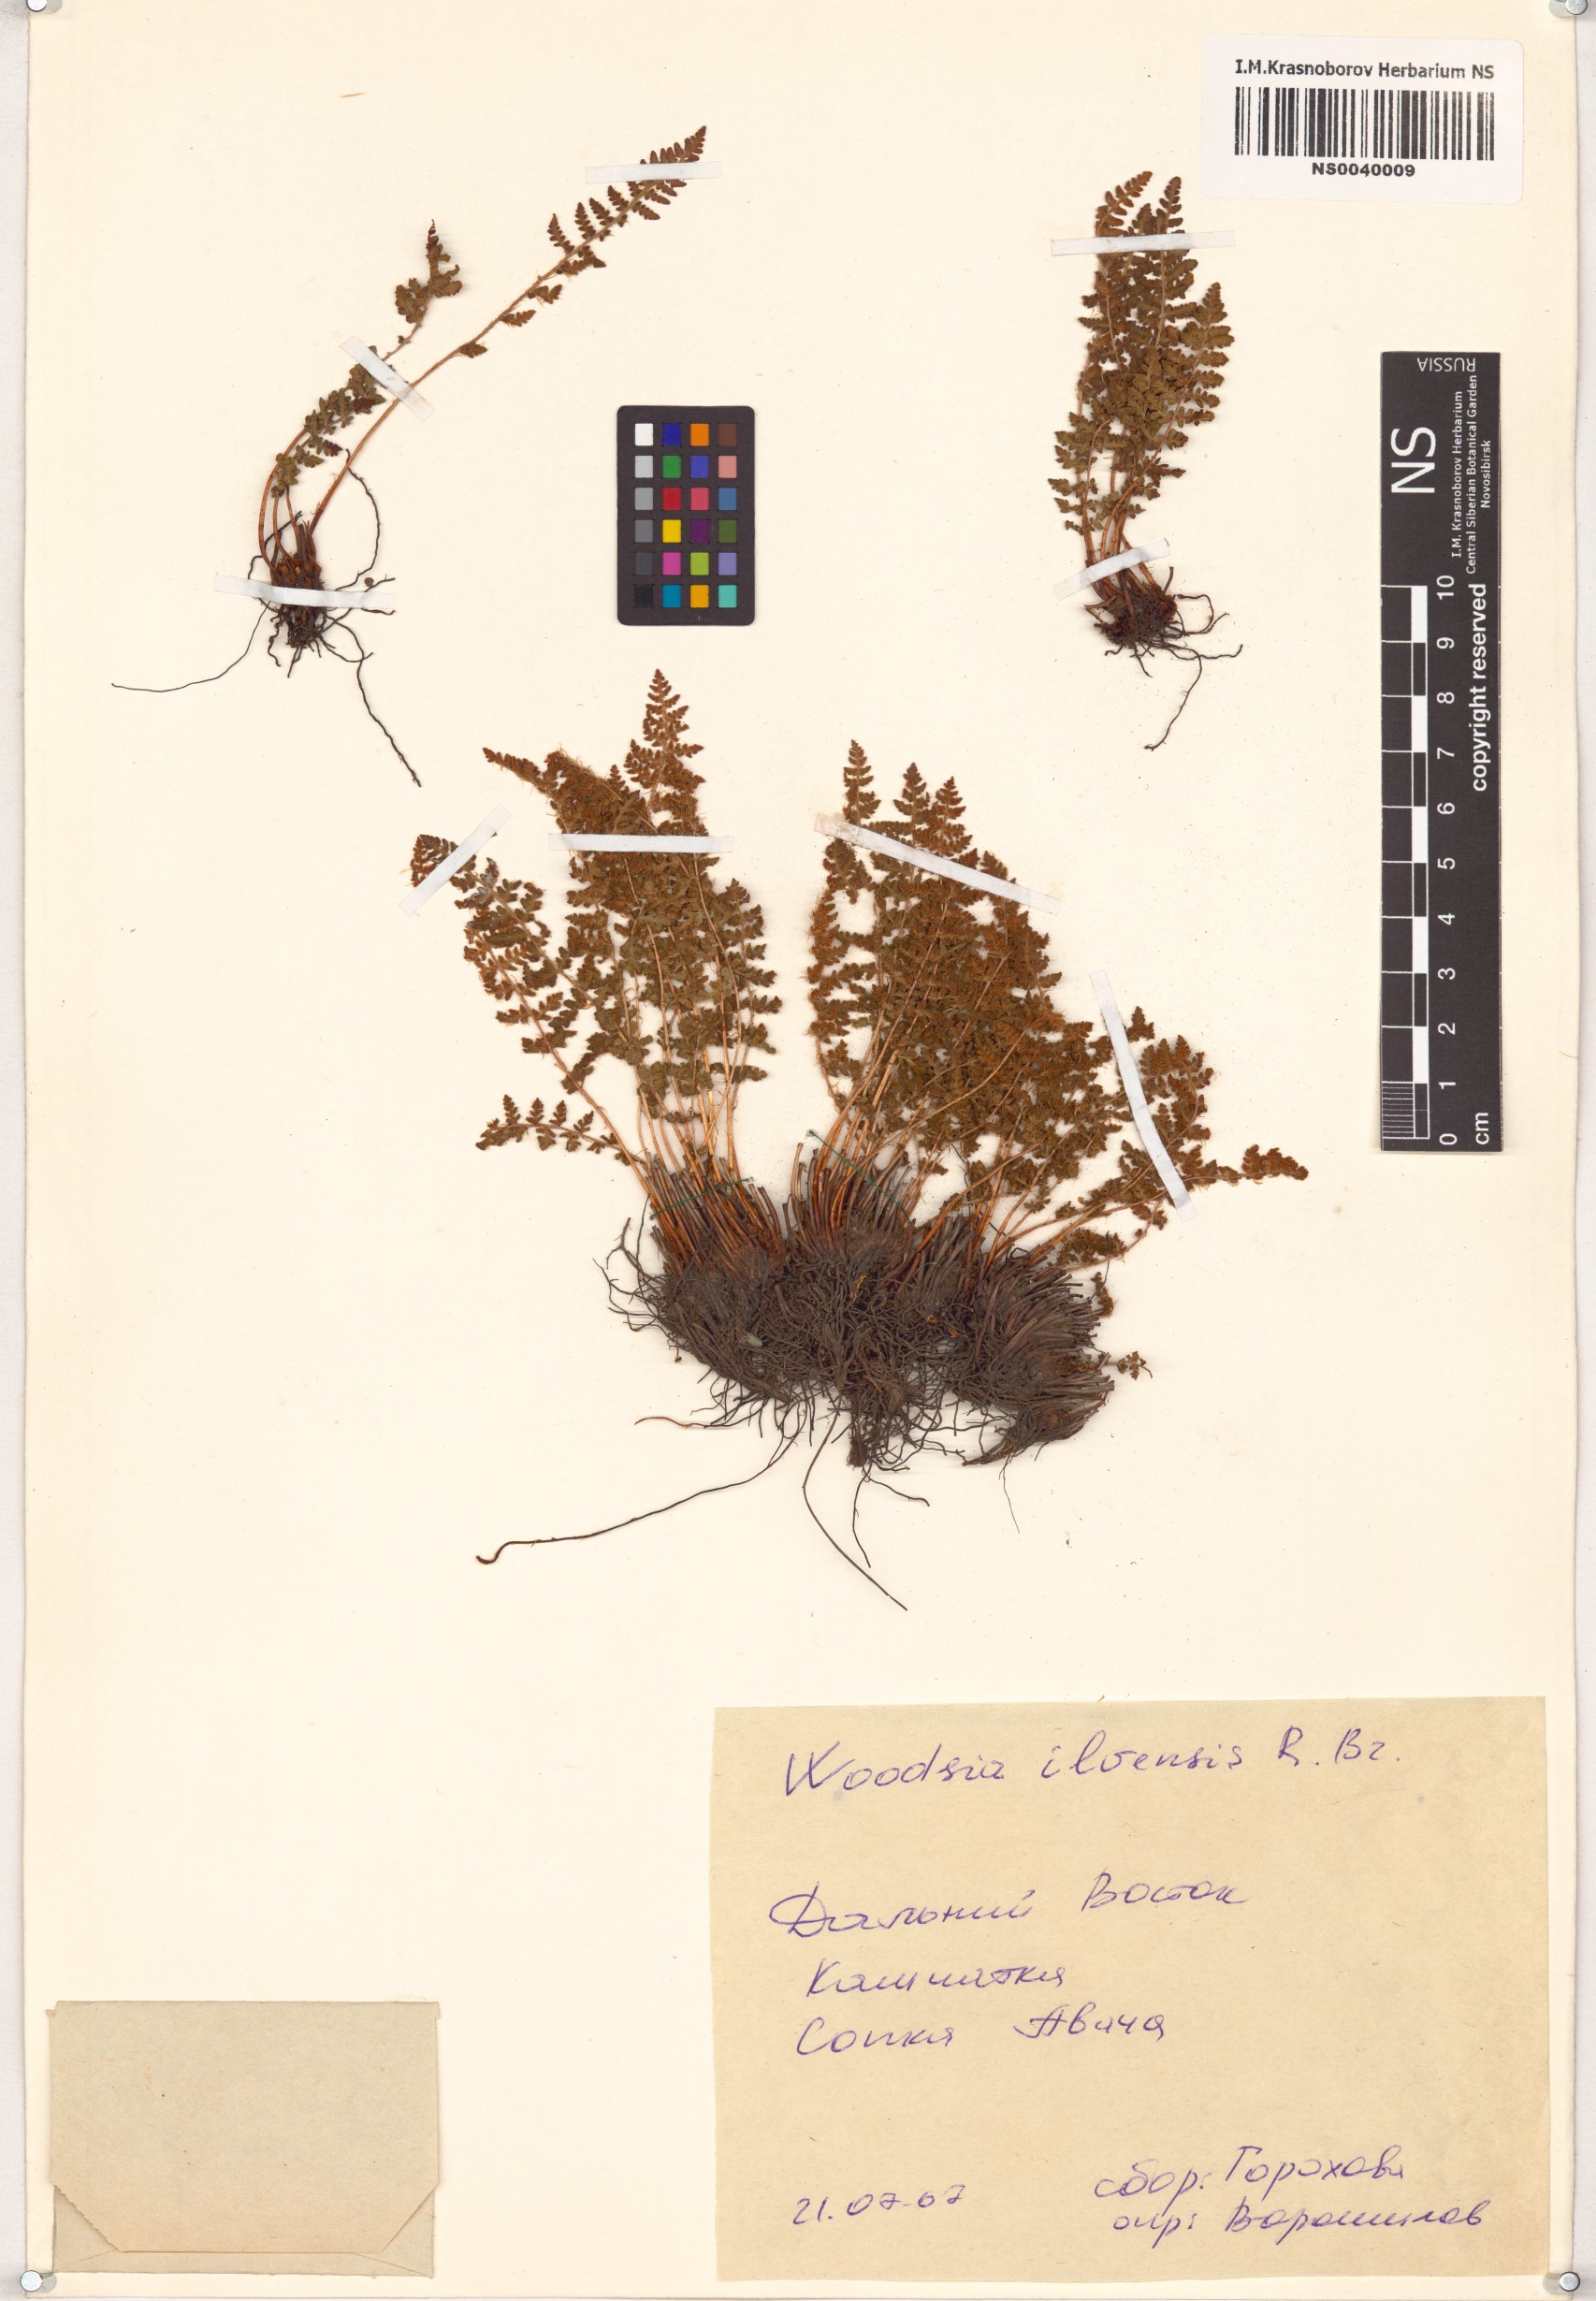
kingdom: Plantae
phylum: Tracheophyta
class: Polypodiopsida
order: Polypodiales
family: Woodsiaceae
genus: Woodsia
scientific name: Woodsia ilvensis
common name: Fragrant woodsia
